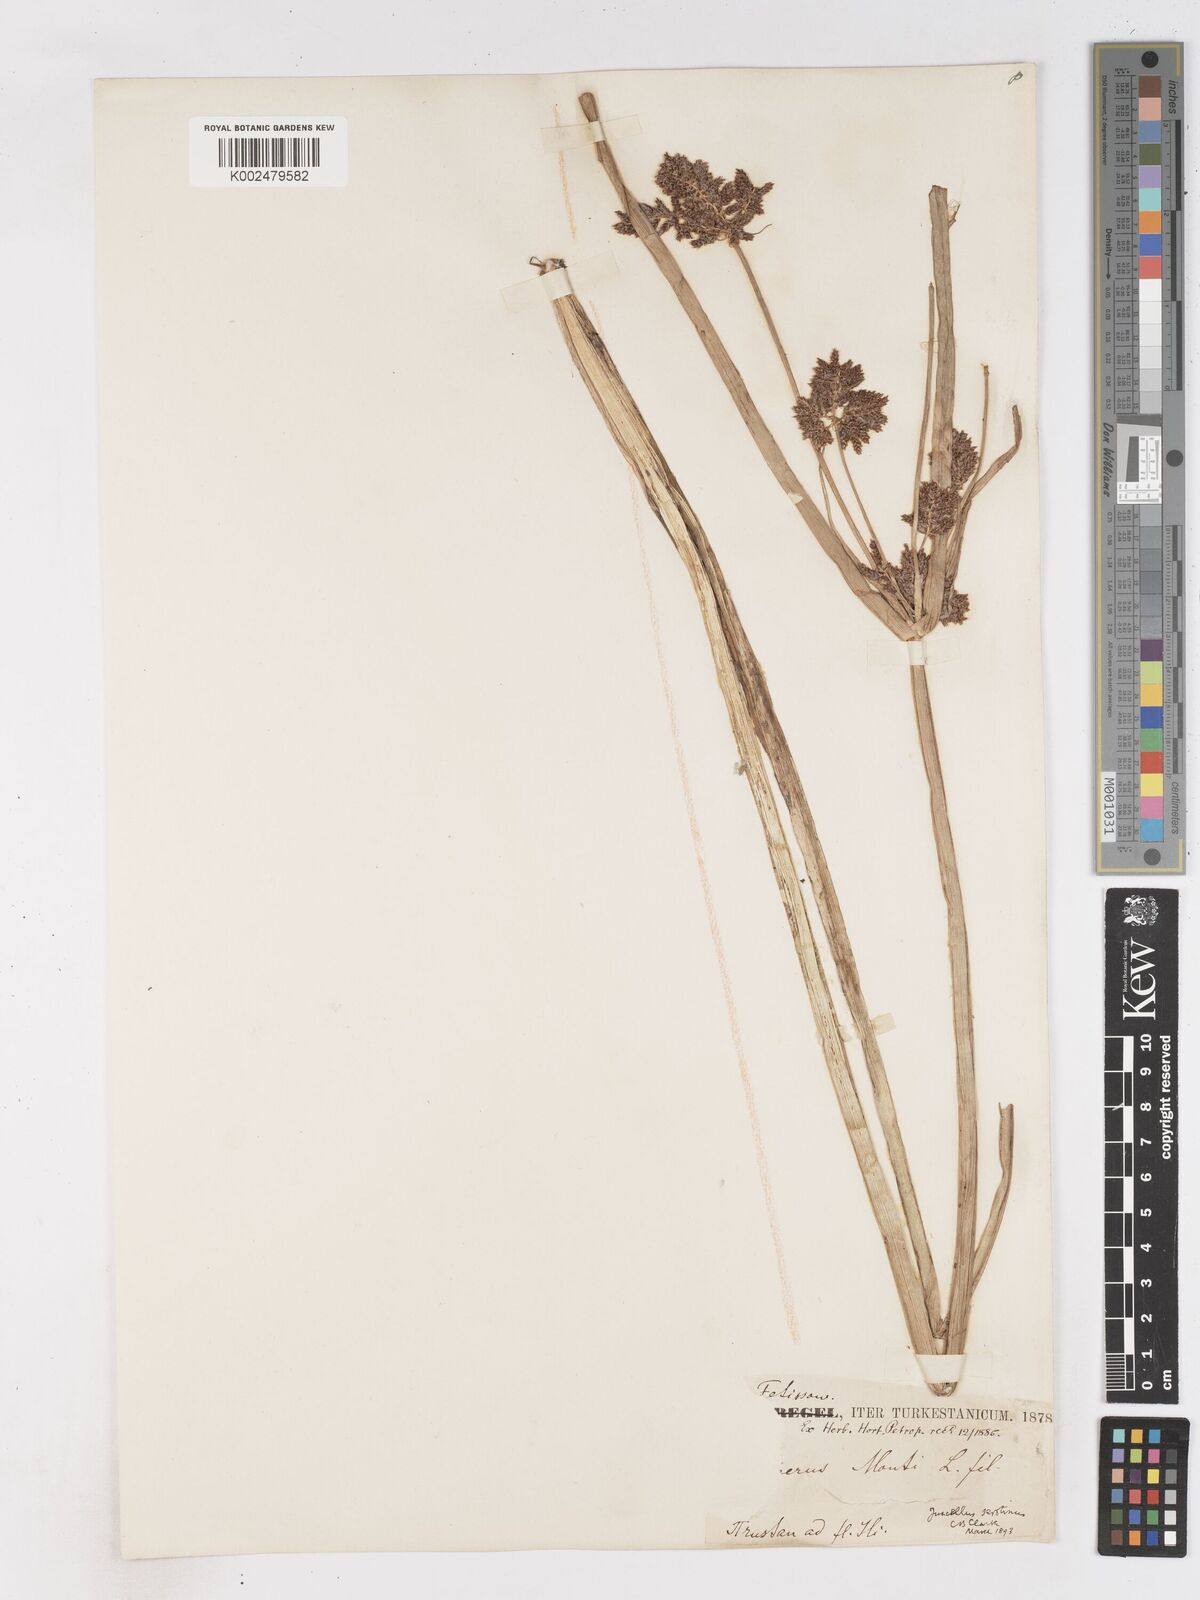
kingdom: Plantae
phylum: Tracheophyta
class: Liliopsida
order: Poales
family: Cyperaceae
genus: Cyperus
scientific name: Cyperus serotinus
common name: Tidalmarsh flatsedge
